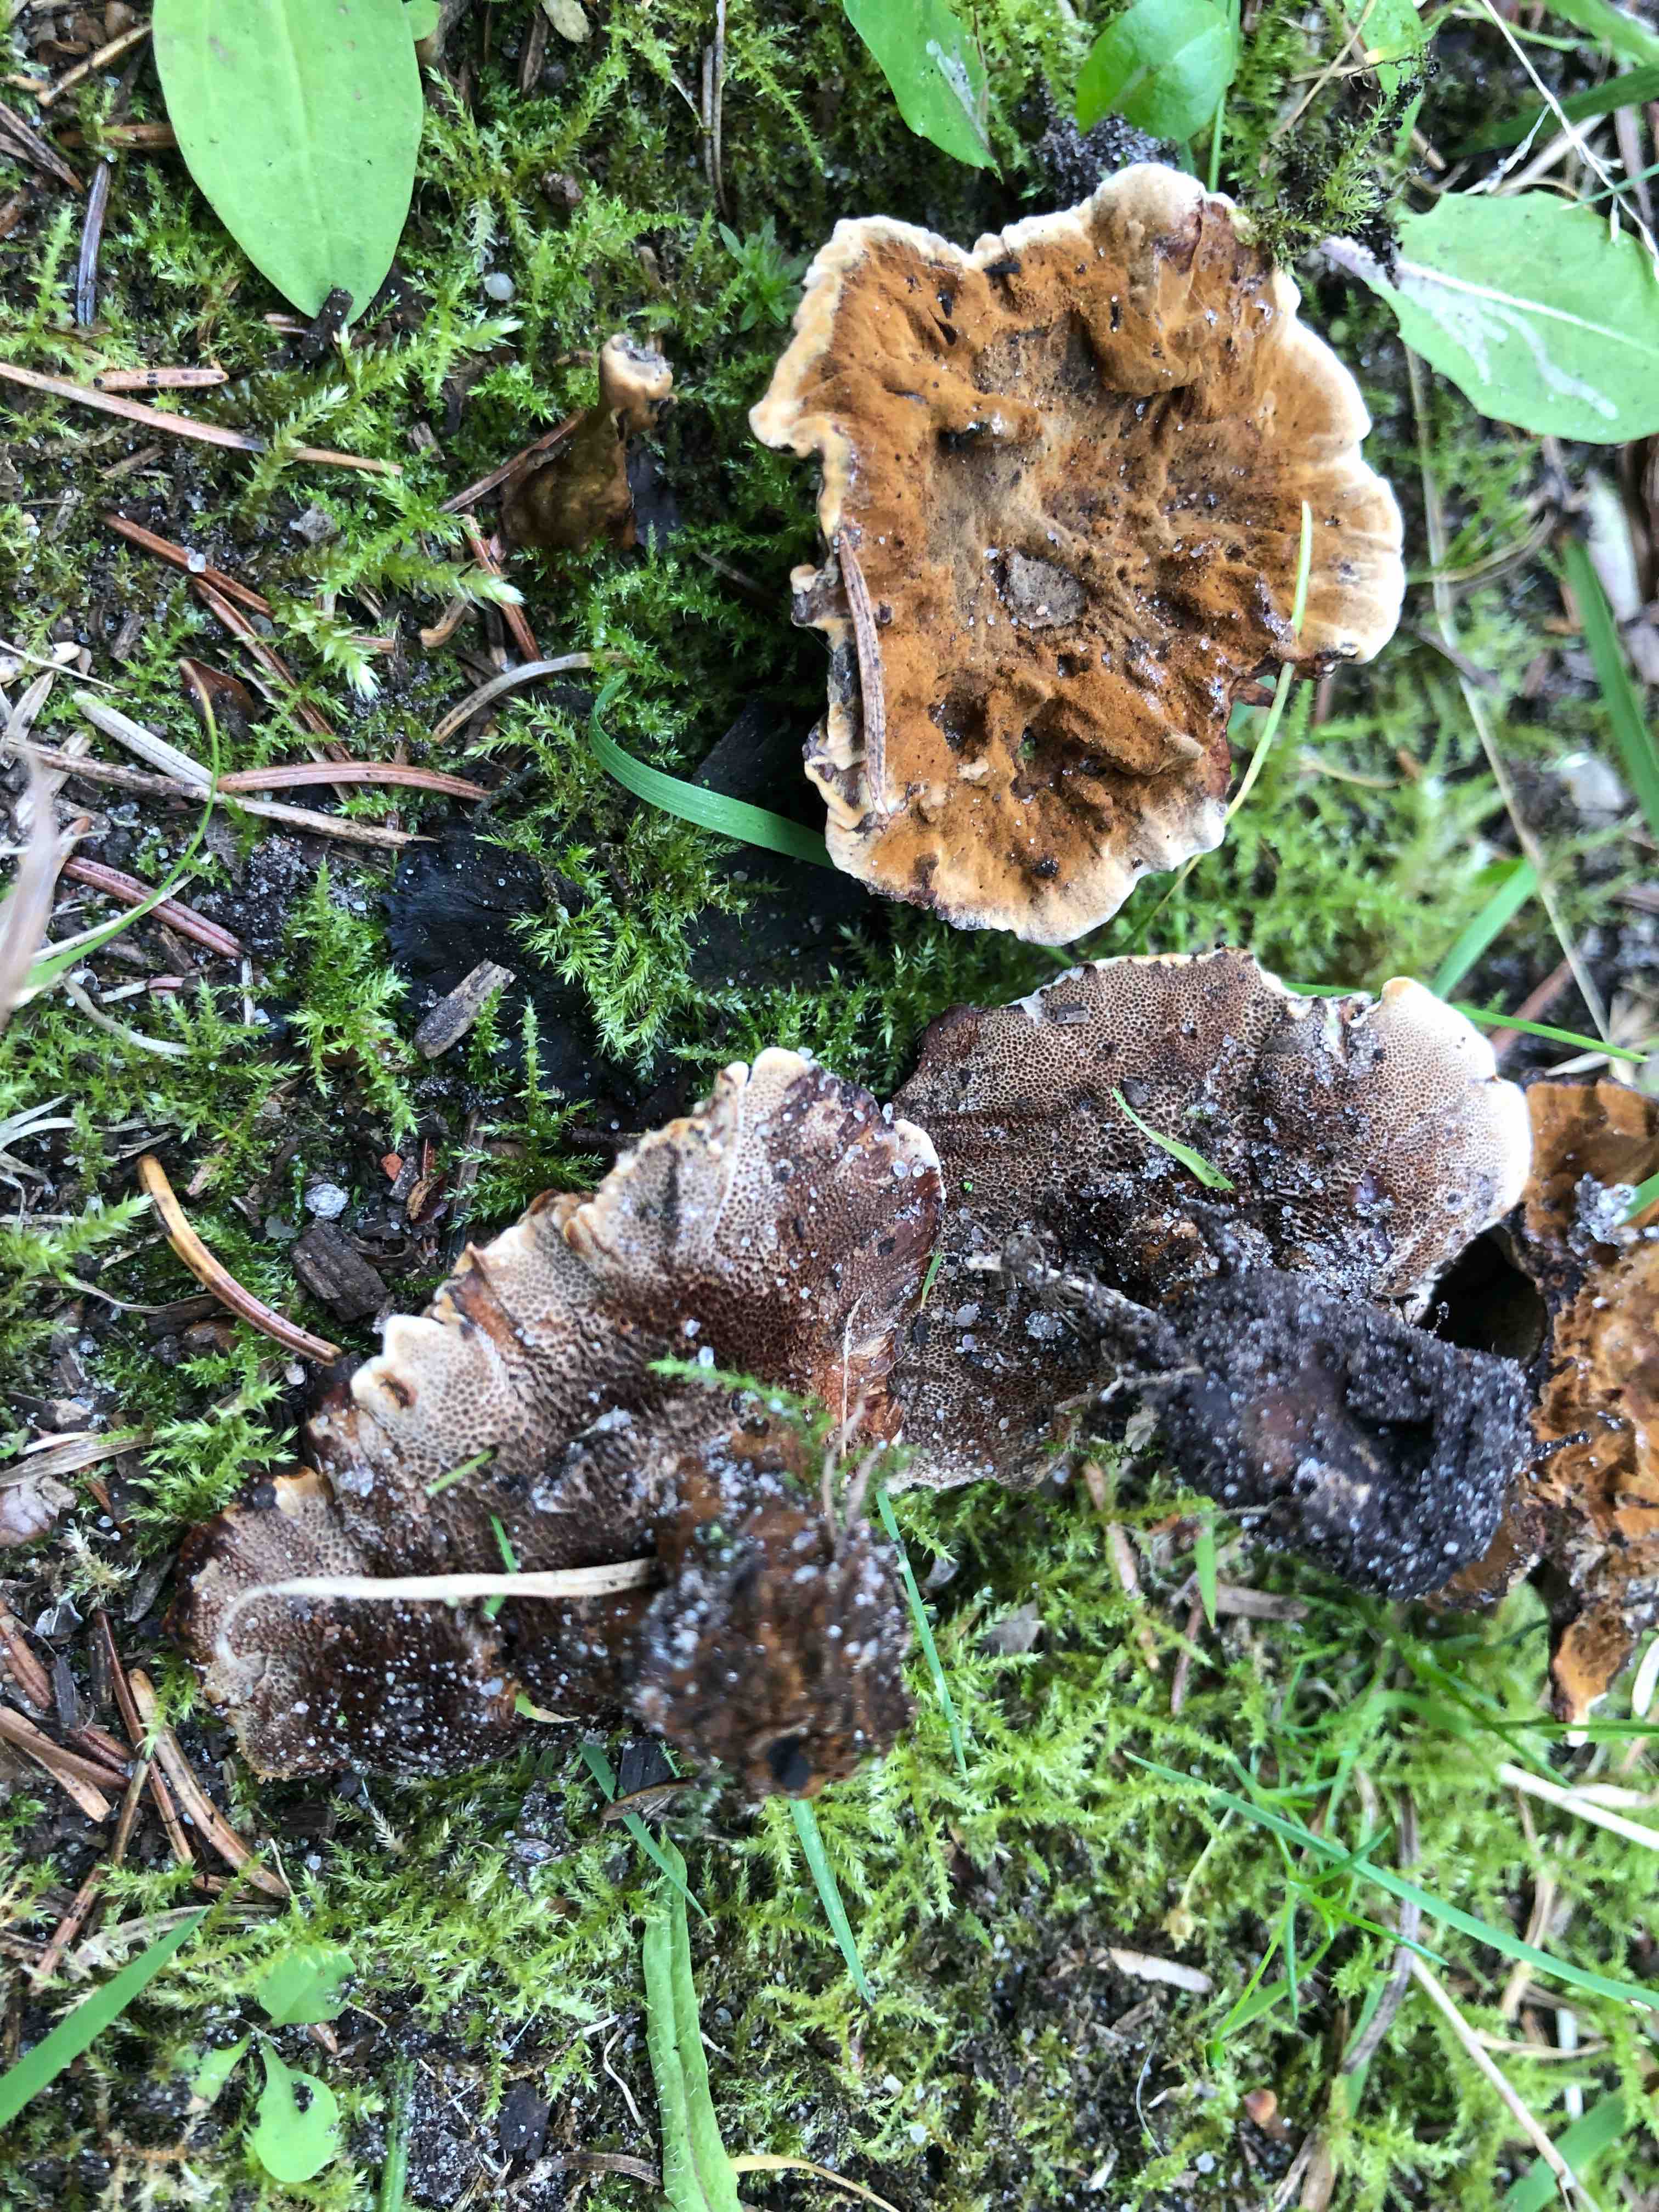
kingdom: Fungi
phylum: Basidiomycota
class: Agaricomycetes
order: Hymenochaetales
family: Hymenochaetaceae
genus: Coltricia
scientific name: Coltricia perennis
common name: almindelig sandporesvamp
